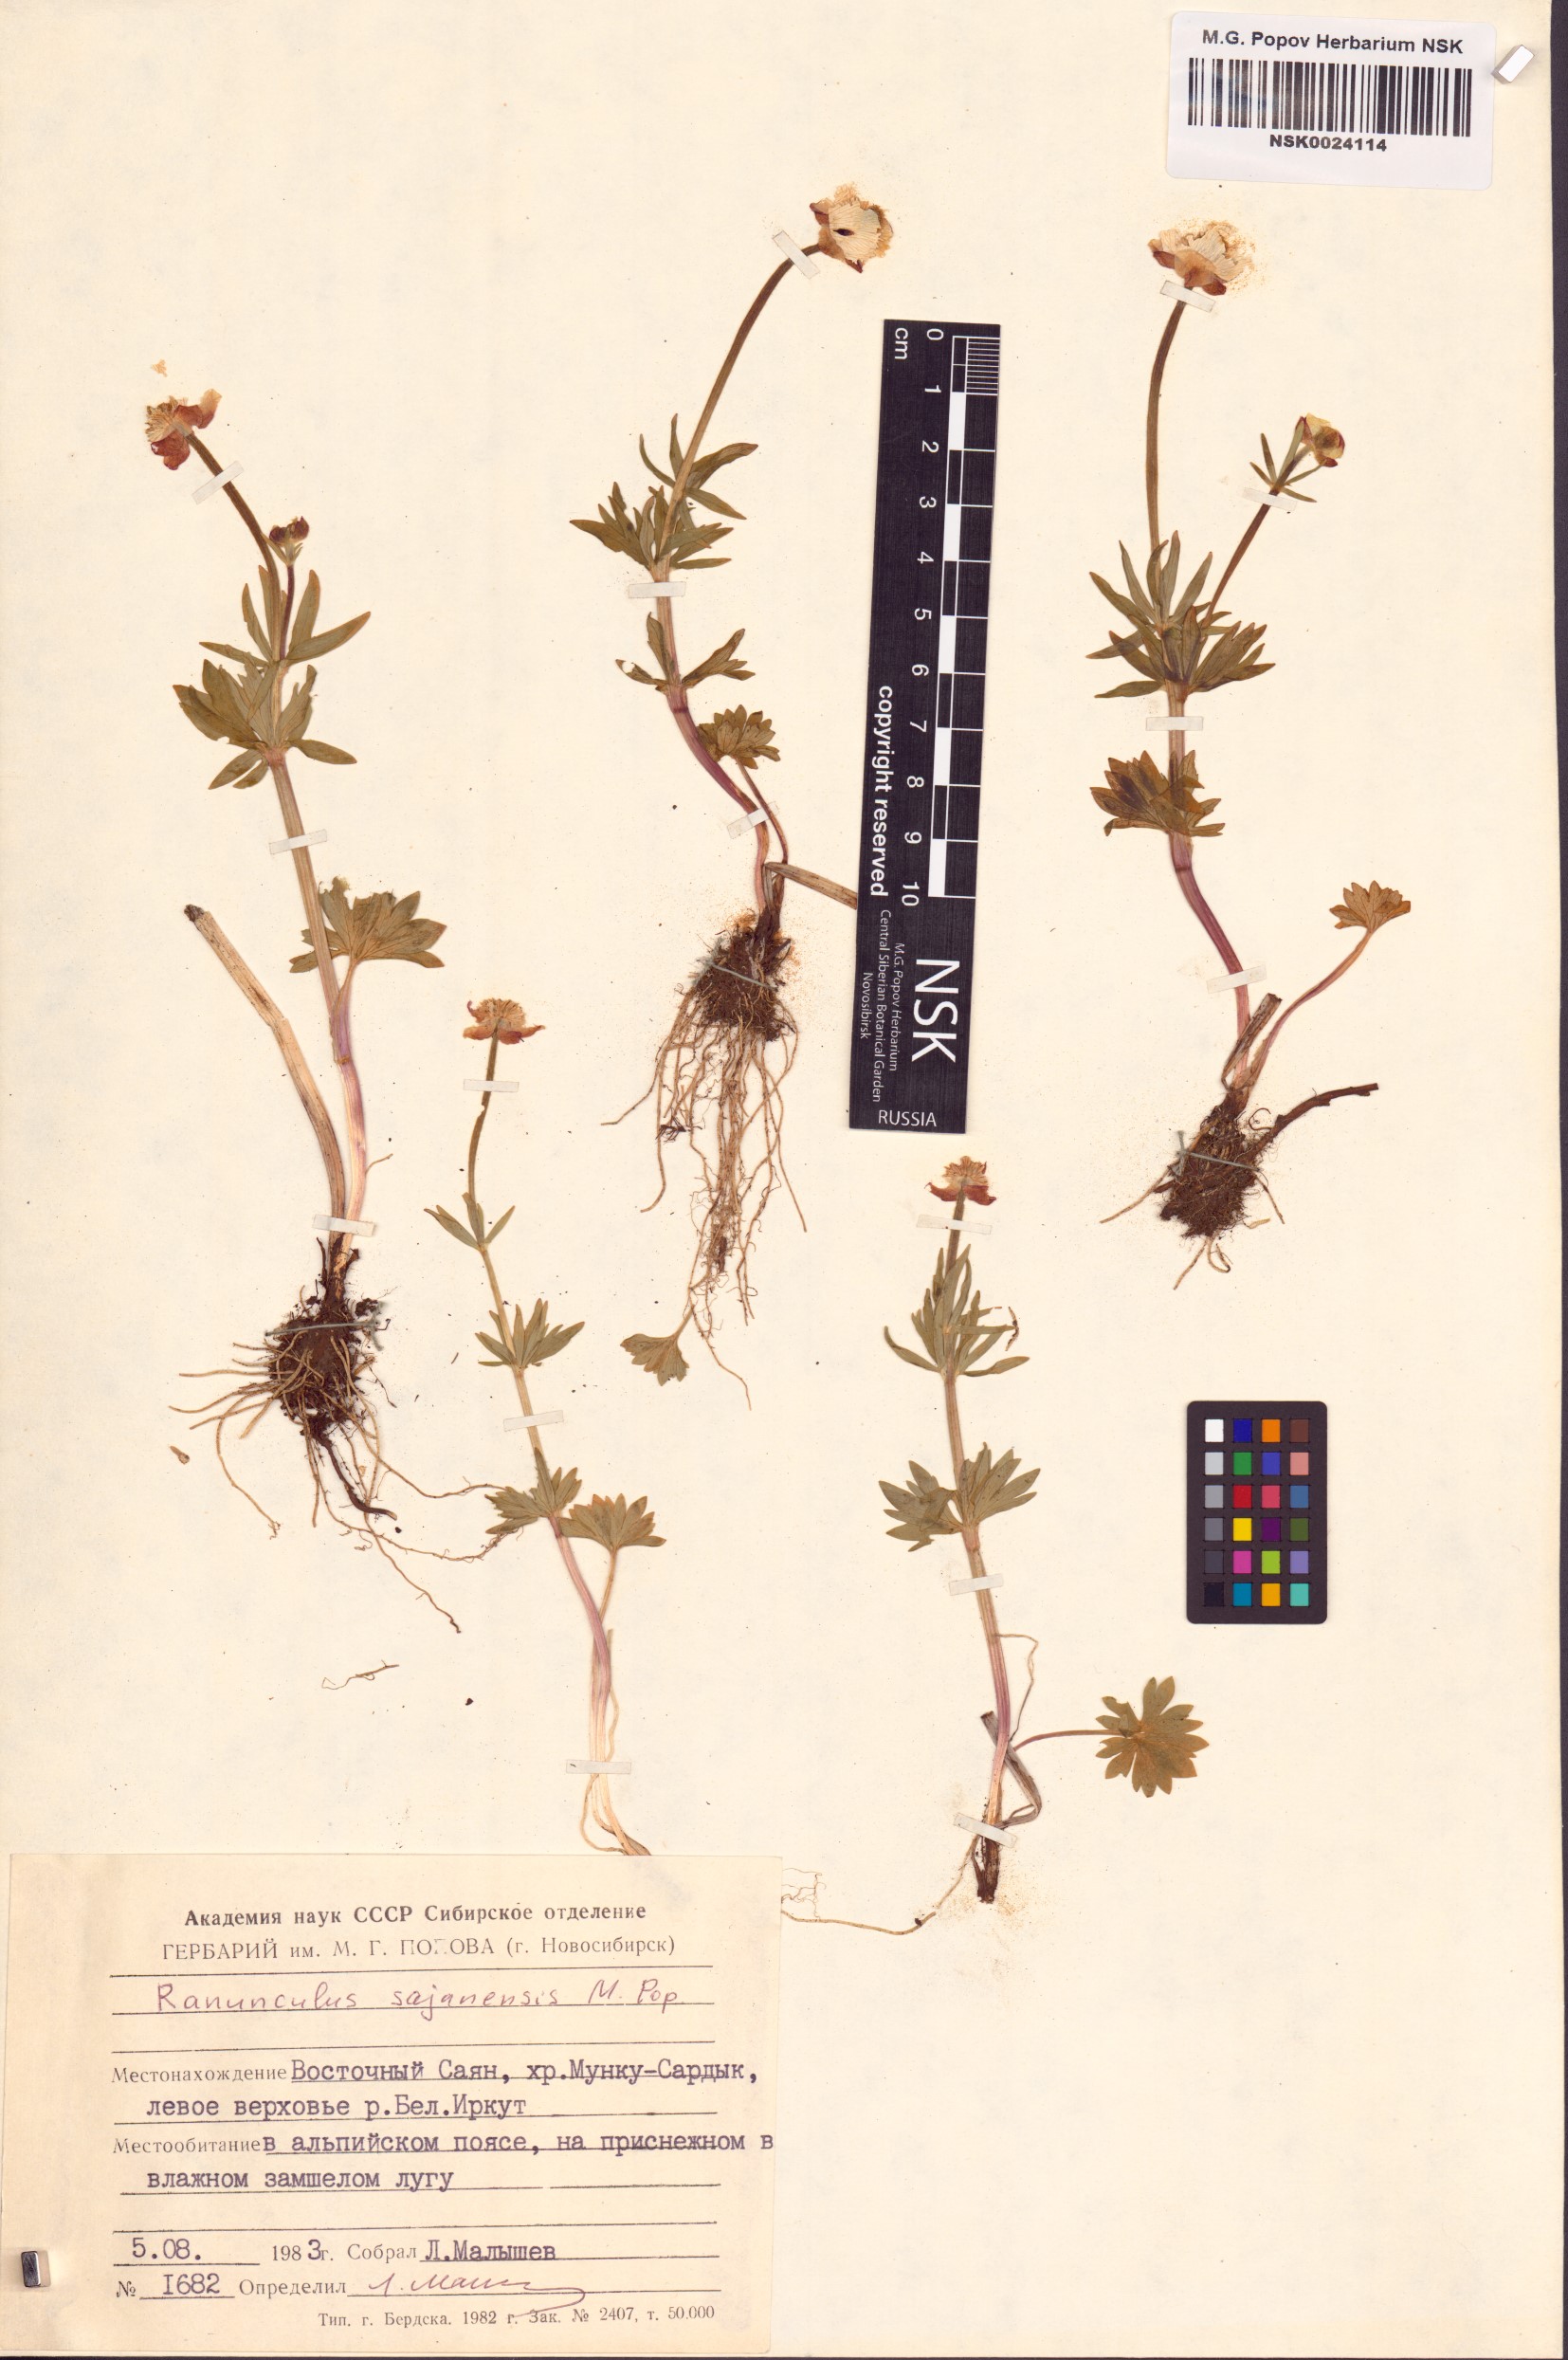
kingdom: Plantae
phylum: Tracheophyta
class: Magnoliopsida
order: Ranunculales
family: Ranunculaceae
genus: Ranunculus
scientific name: Ranunculus sajanensis
